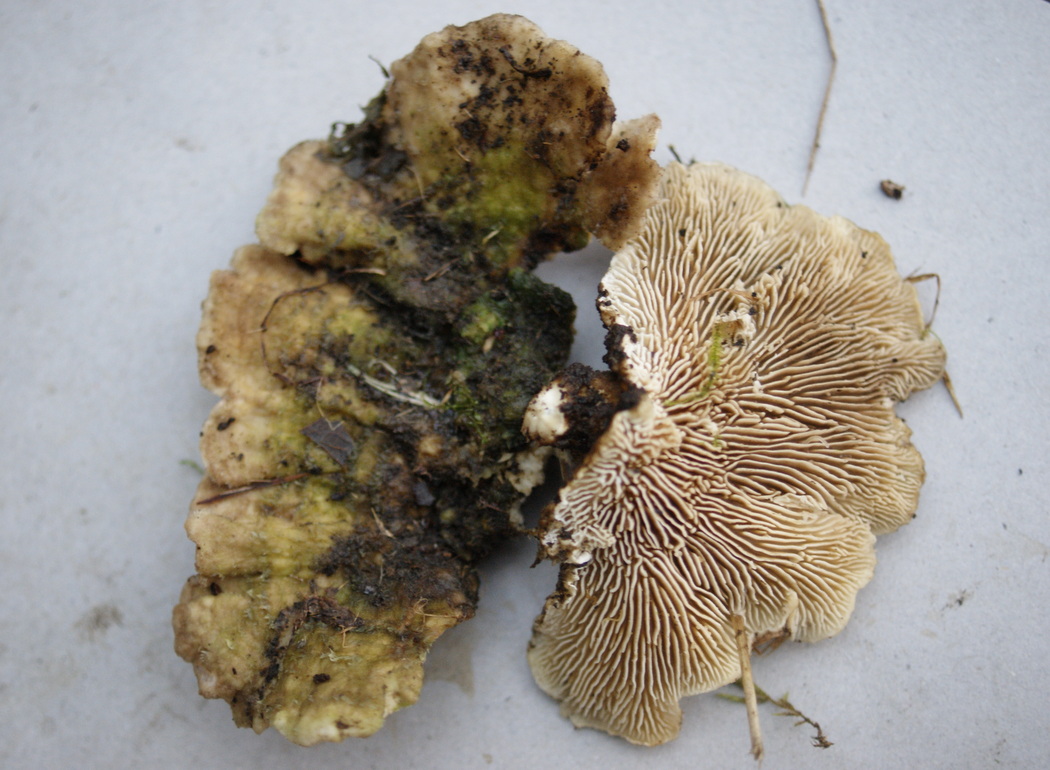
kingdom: Fungi
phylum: Basidiomycota
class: Agaricomycetes
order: Polyporales
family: Polyporaceae
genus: Lenzites
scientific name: Lenzites betulinus
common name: birke-læderporesvamp
